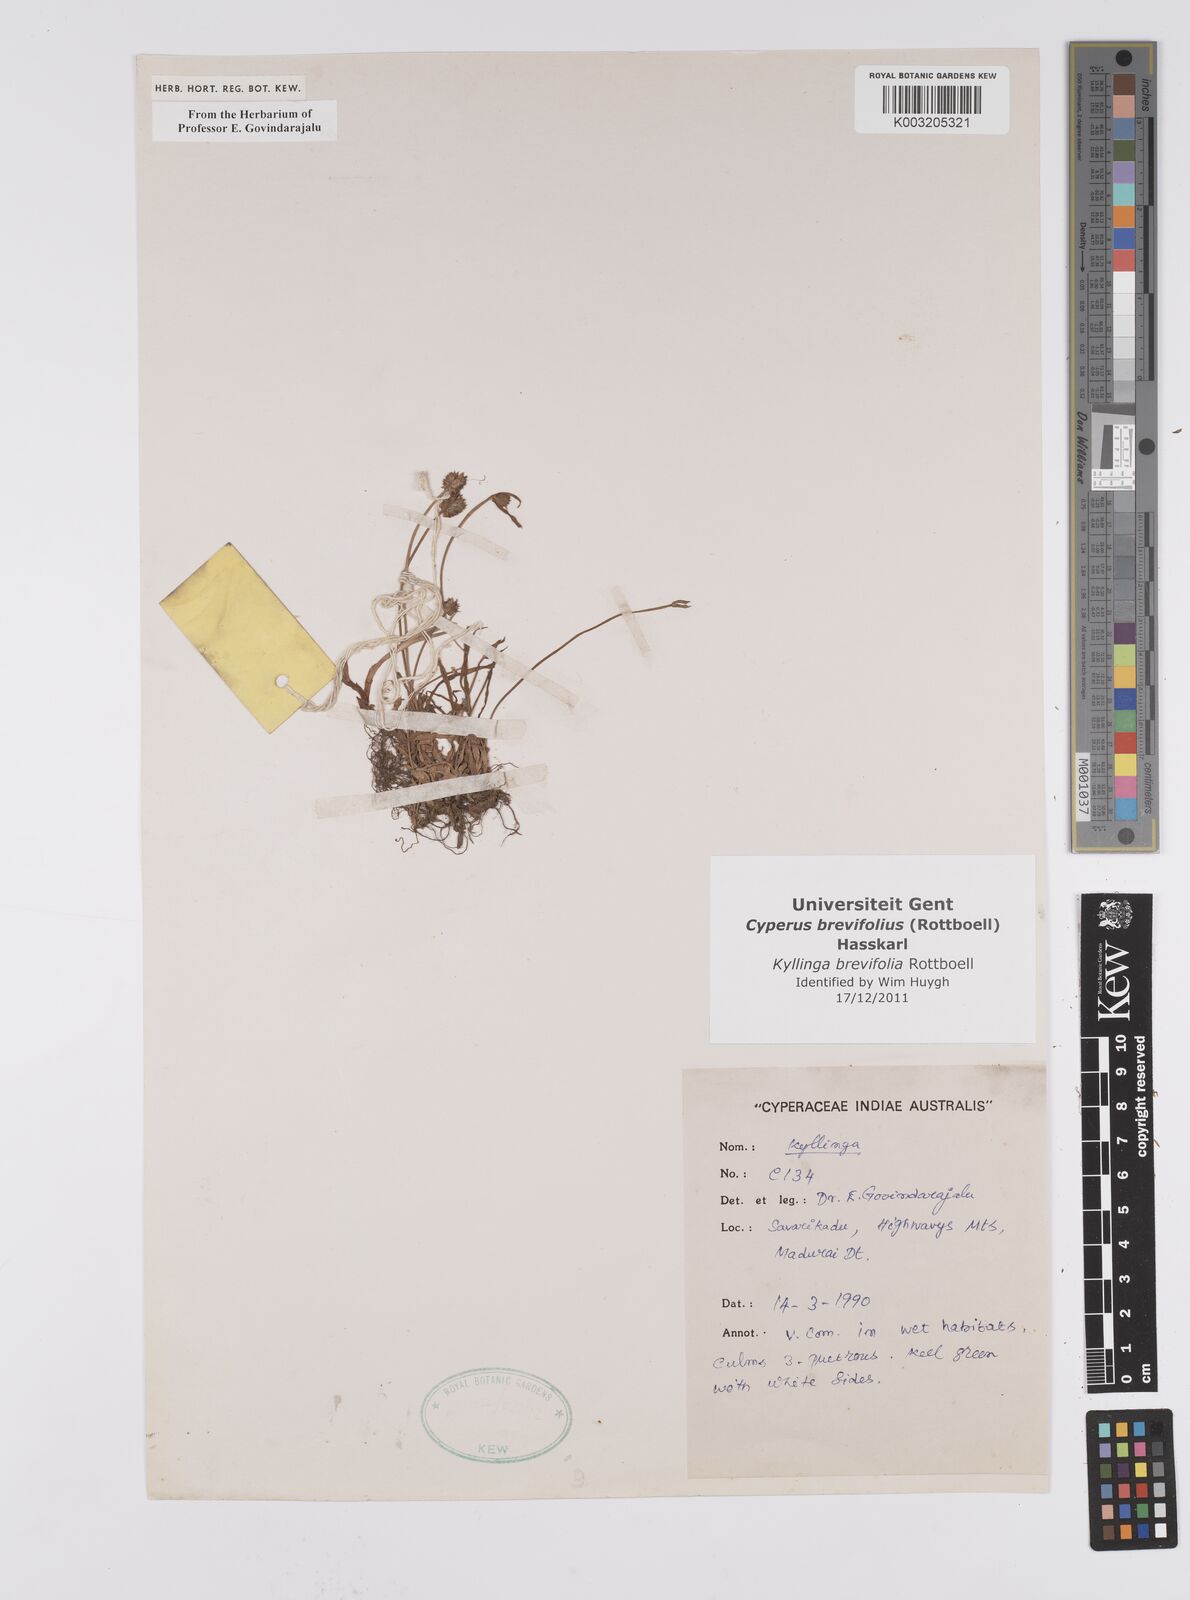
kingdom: Plantae
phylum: Tracheophyta
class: Liliopsida
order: Poales
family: Cyperaceae
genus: Cyperus
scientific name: Cyperus brevifolius
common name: Globe kyllinga
